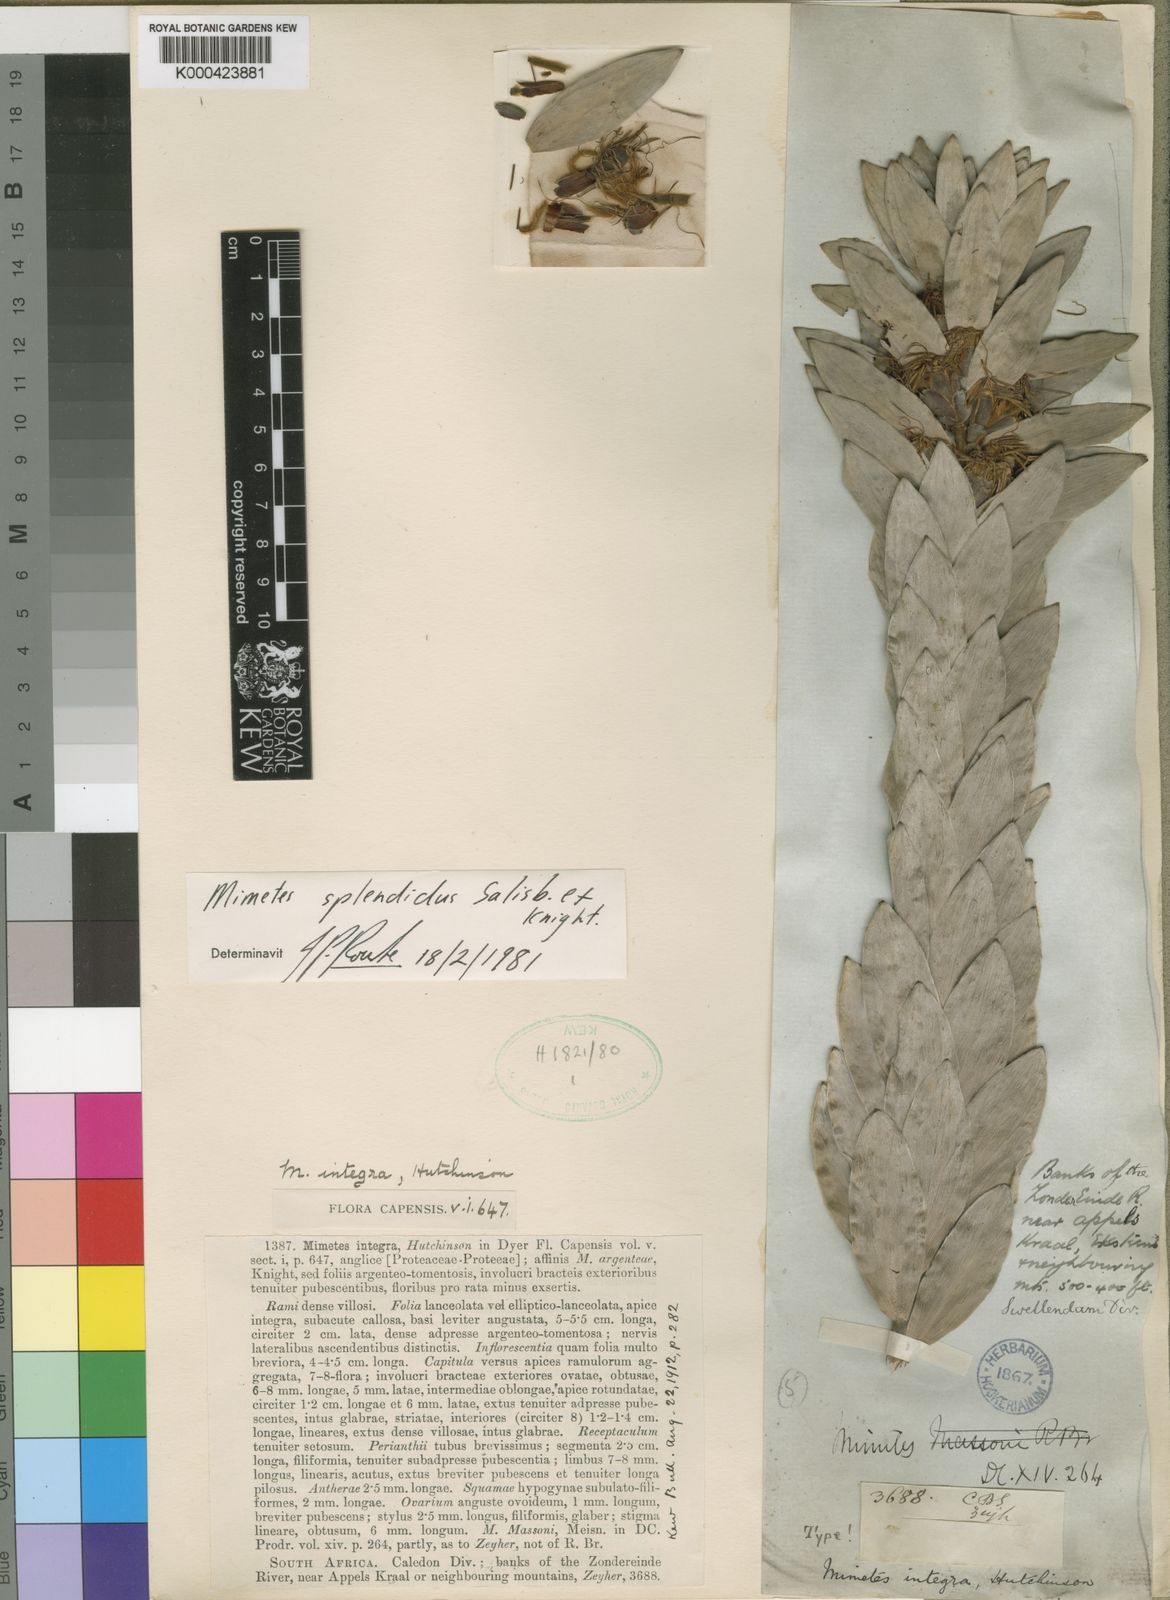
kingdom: Plantae
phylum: Tracheophyta
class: Magnoliopsida
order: Proteales
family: Proteaceae
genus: Mimetes
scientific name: Mimetes splendidus
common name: Splendid pagoda
